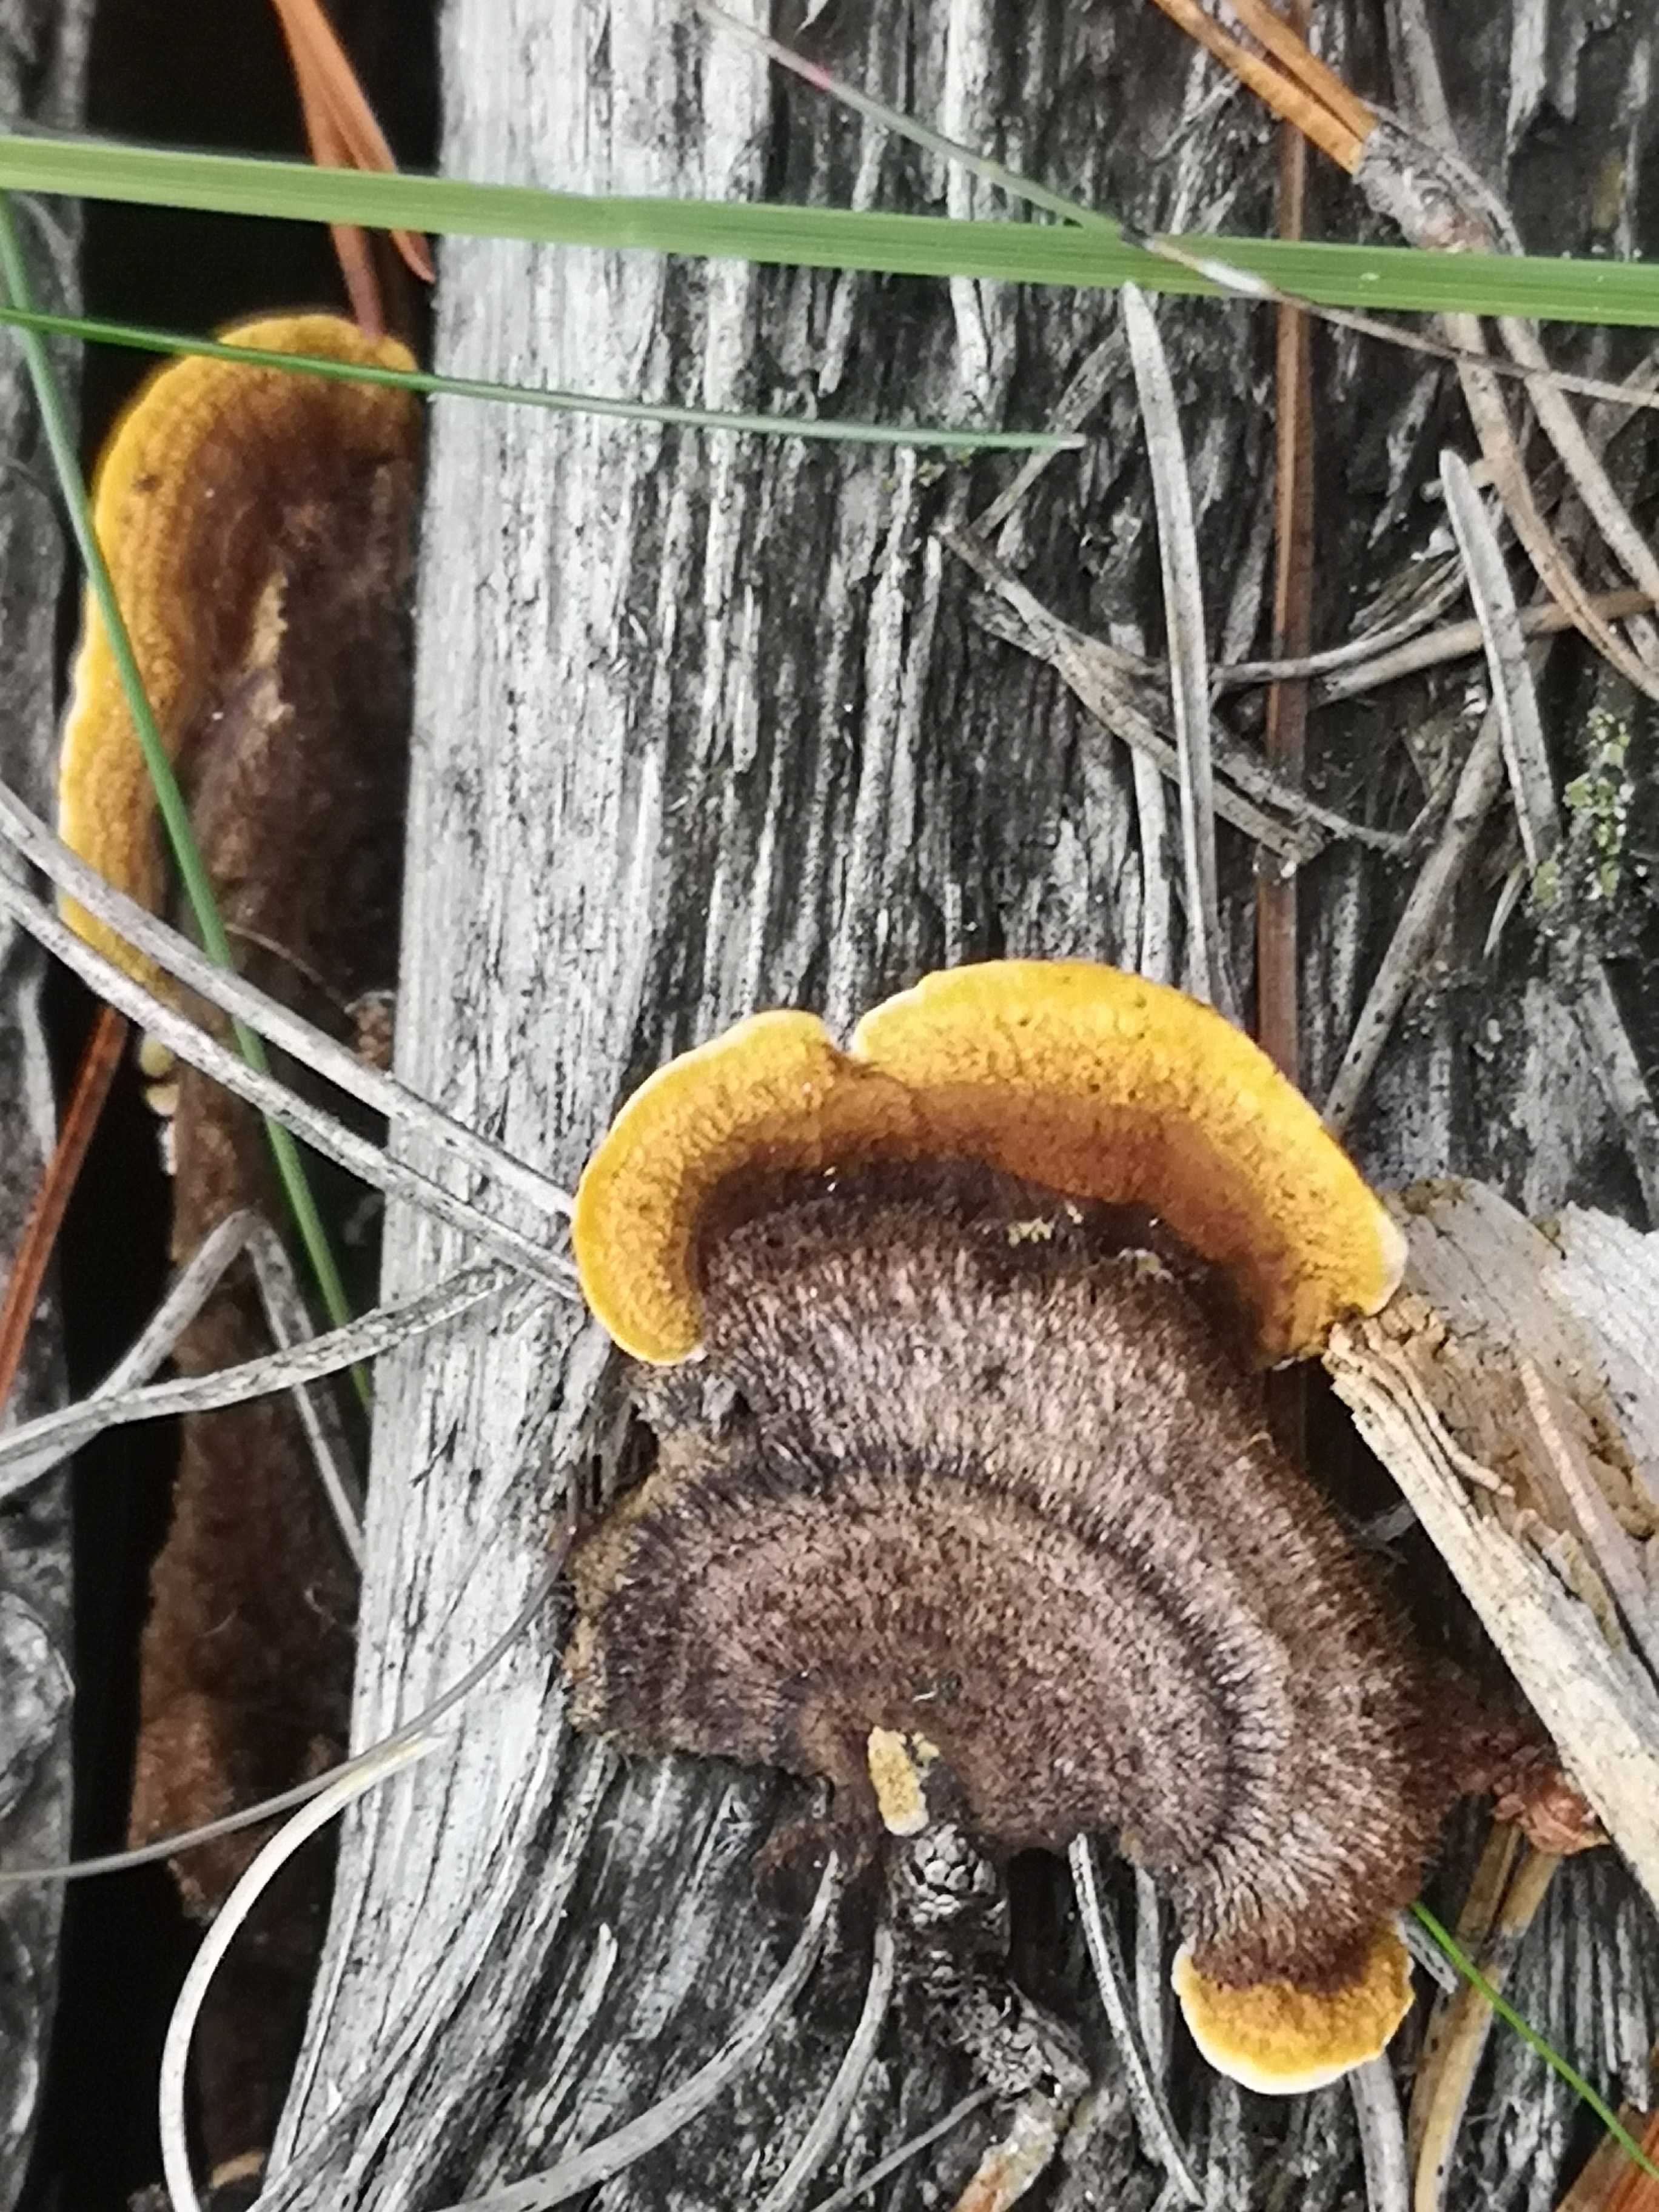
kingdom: Fungi
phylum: Basidiomycota
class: Agaricomycetes
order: Gloeophyllales
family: Gloeophyllaceae
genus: Gloeophyllum
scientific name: Gloeophyllum sepiarium
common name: fyrre-korkhat
